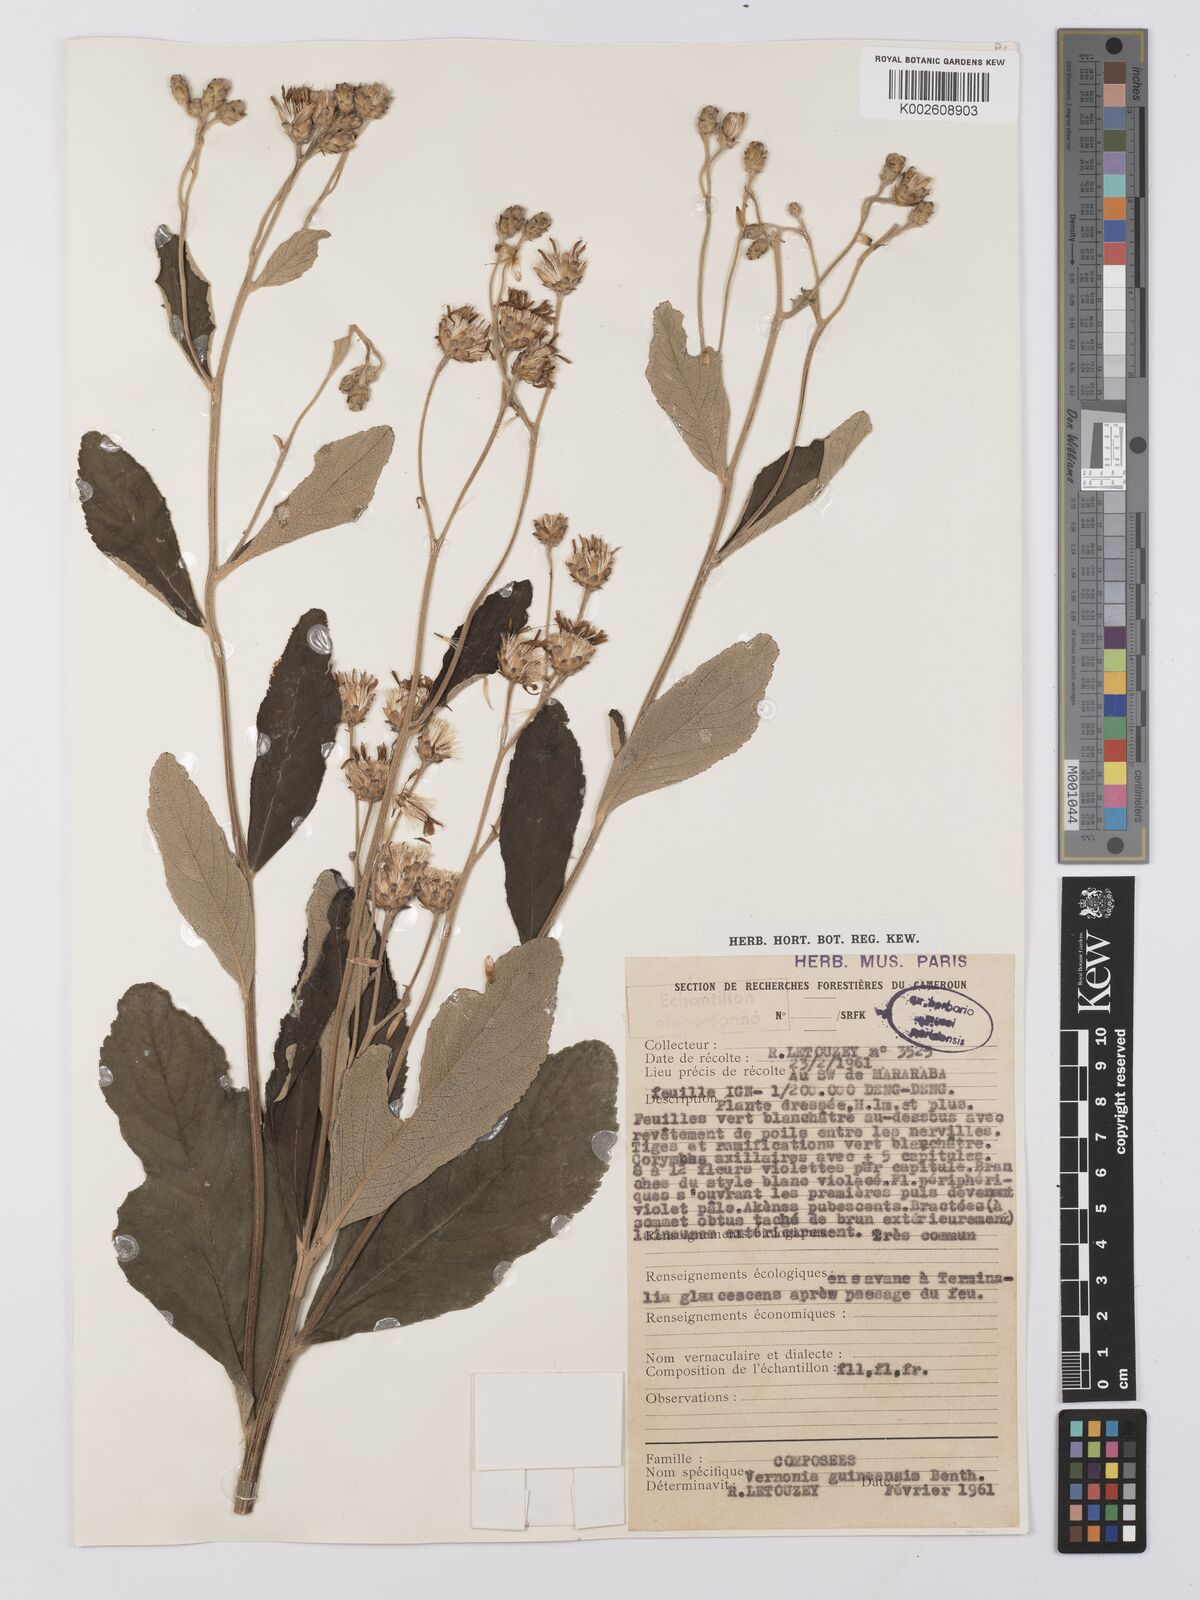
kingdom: Plantae
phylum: Tracheophyta
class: Magnoliopsida
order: Asterales
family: Asteraceae
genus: Baccharoides
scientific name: Baccharoides guineensis
